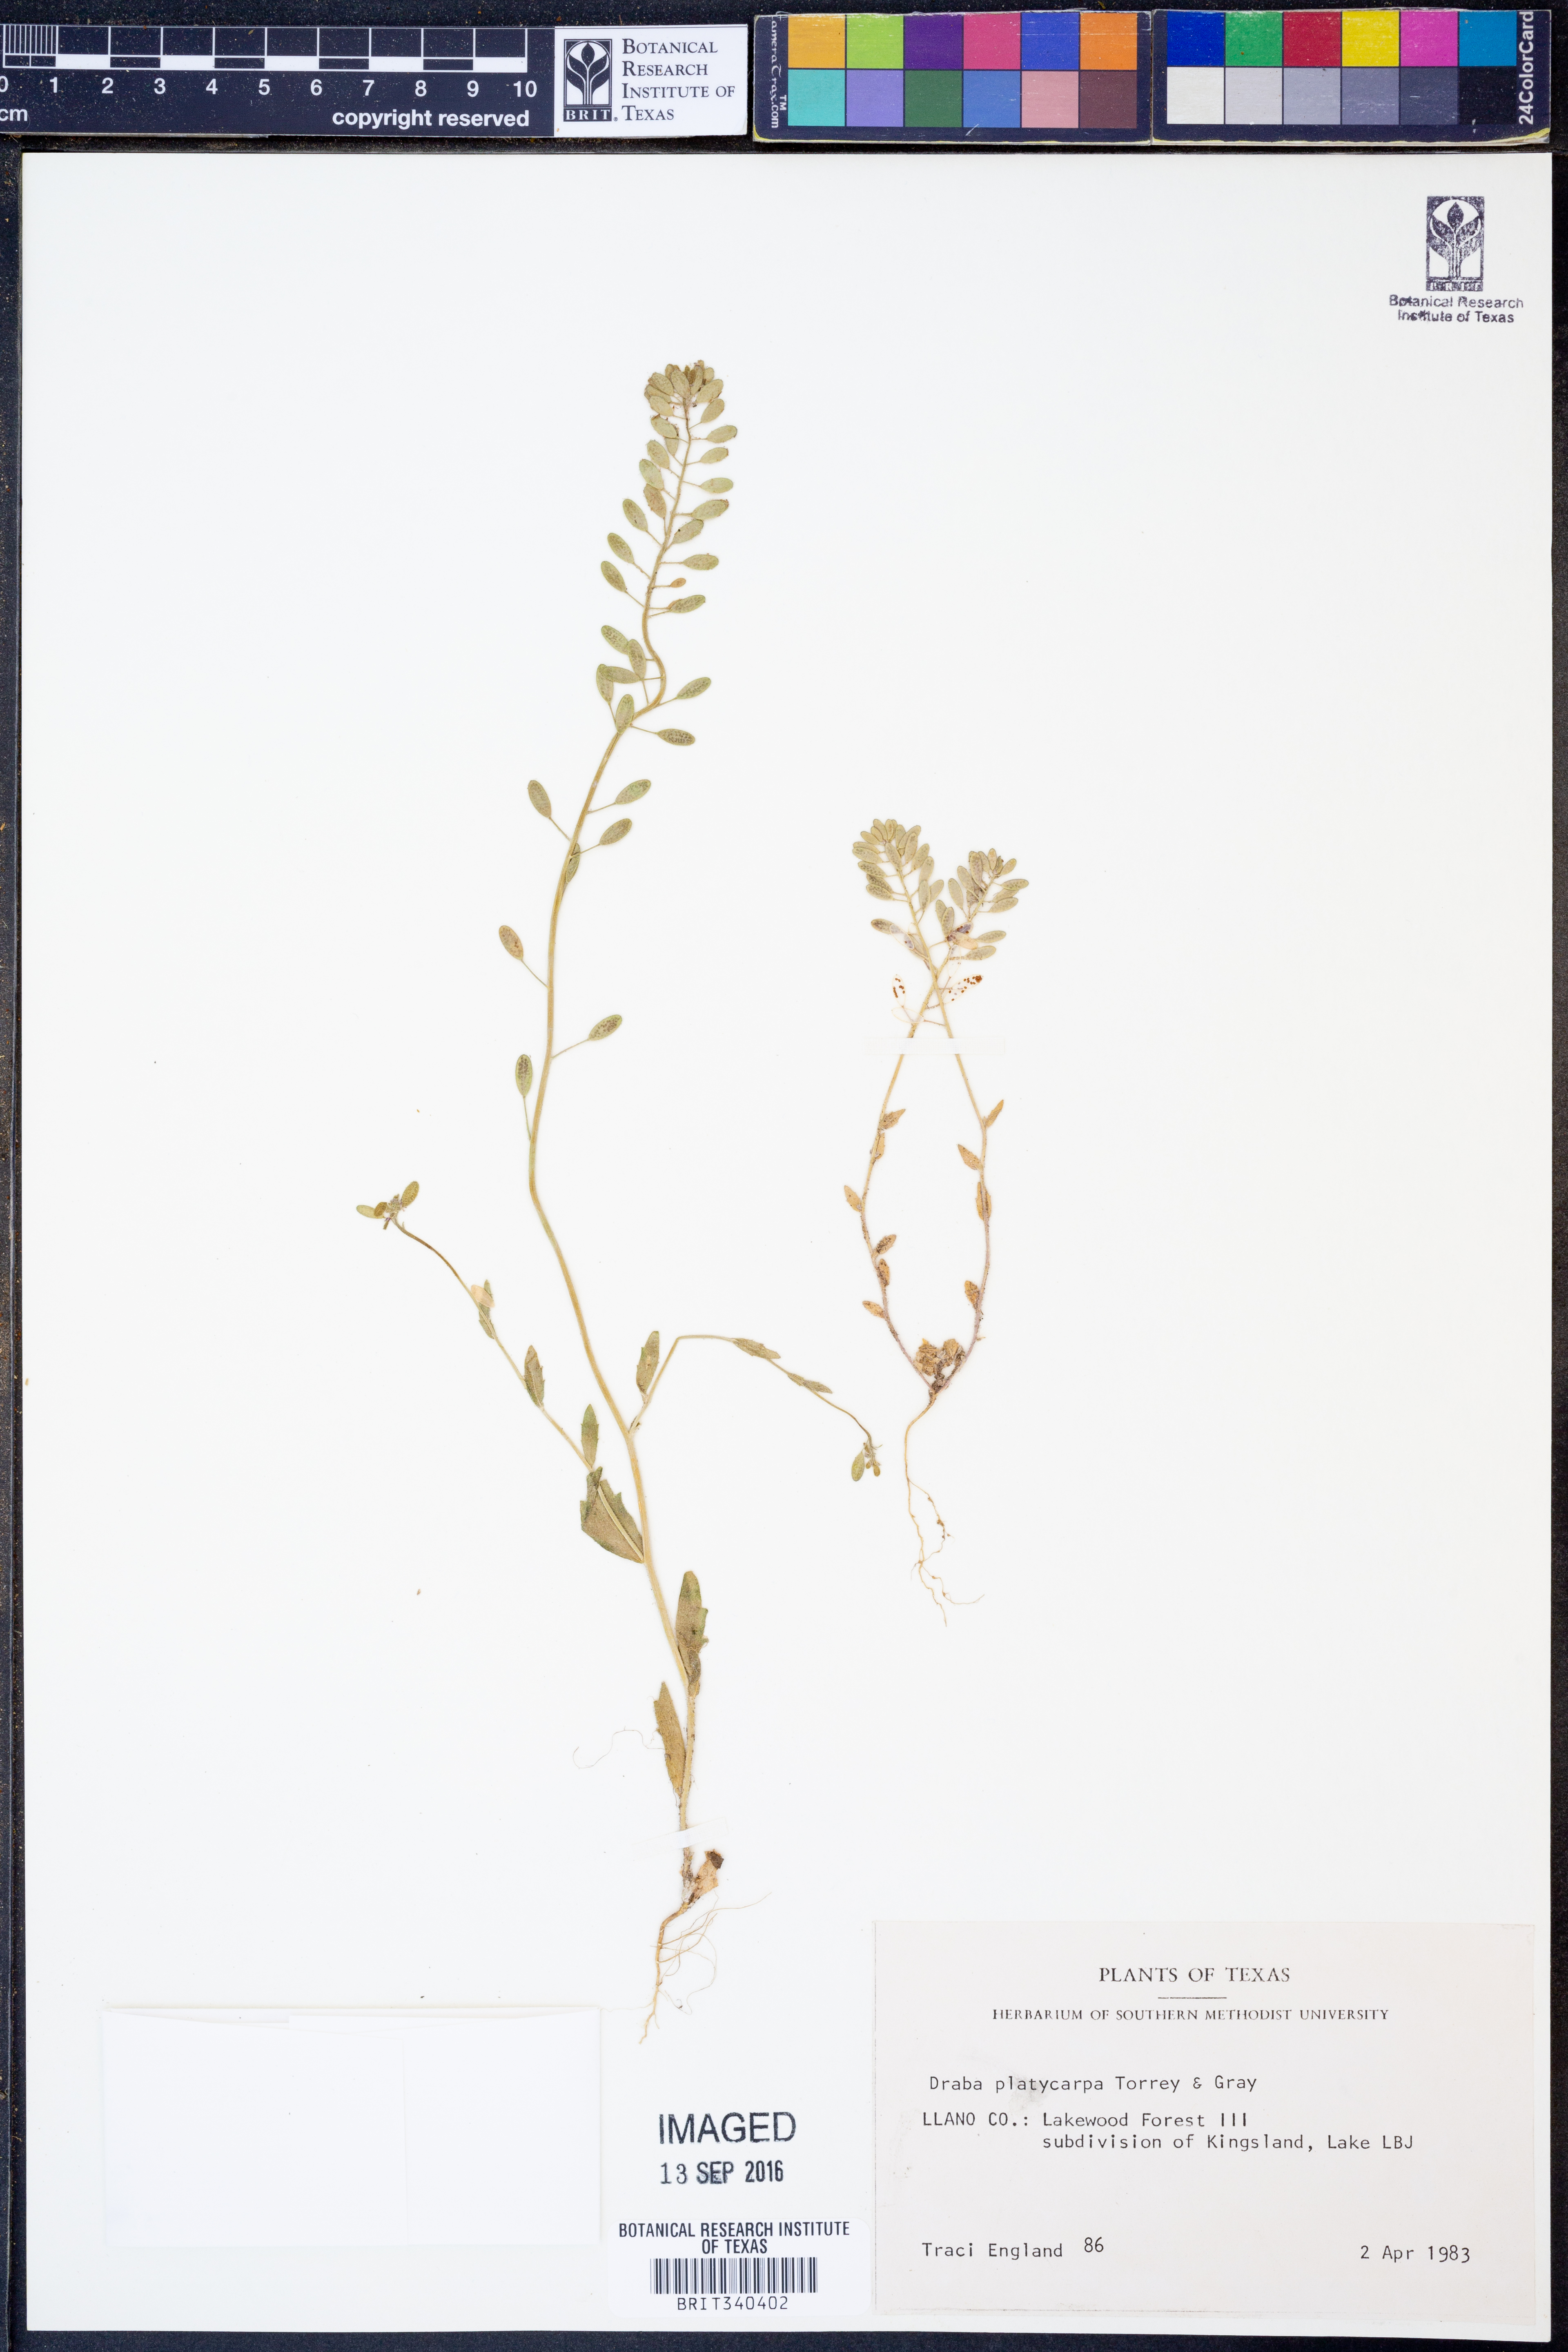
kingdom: Plantae
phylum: Tracheophyta
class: Magnoliopsida
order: Brassicales
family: Brassicaceae
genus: Tomostima
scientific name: Tomostima platycarpa
